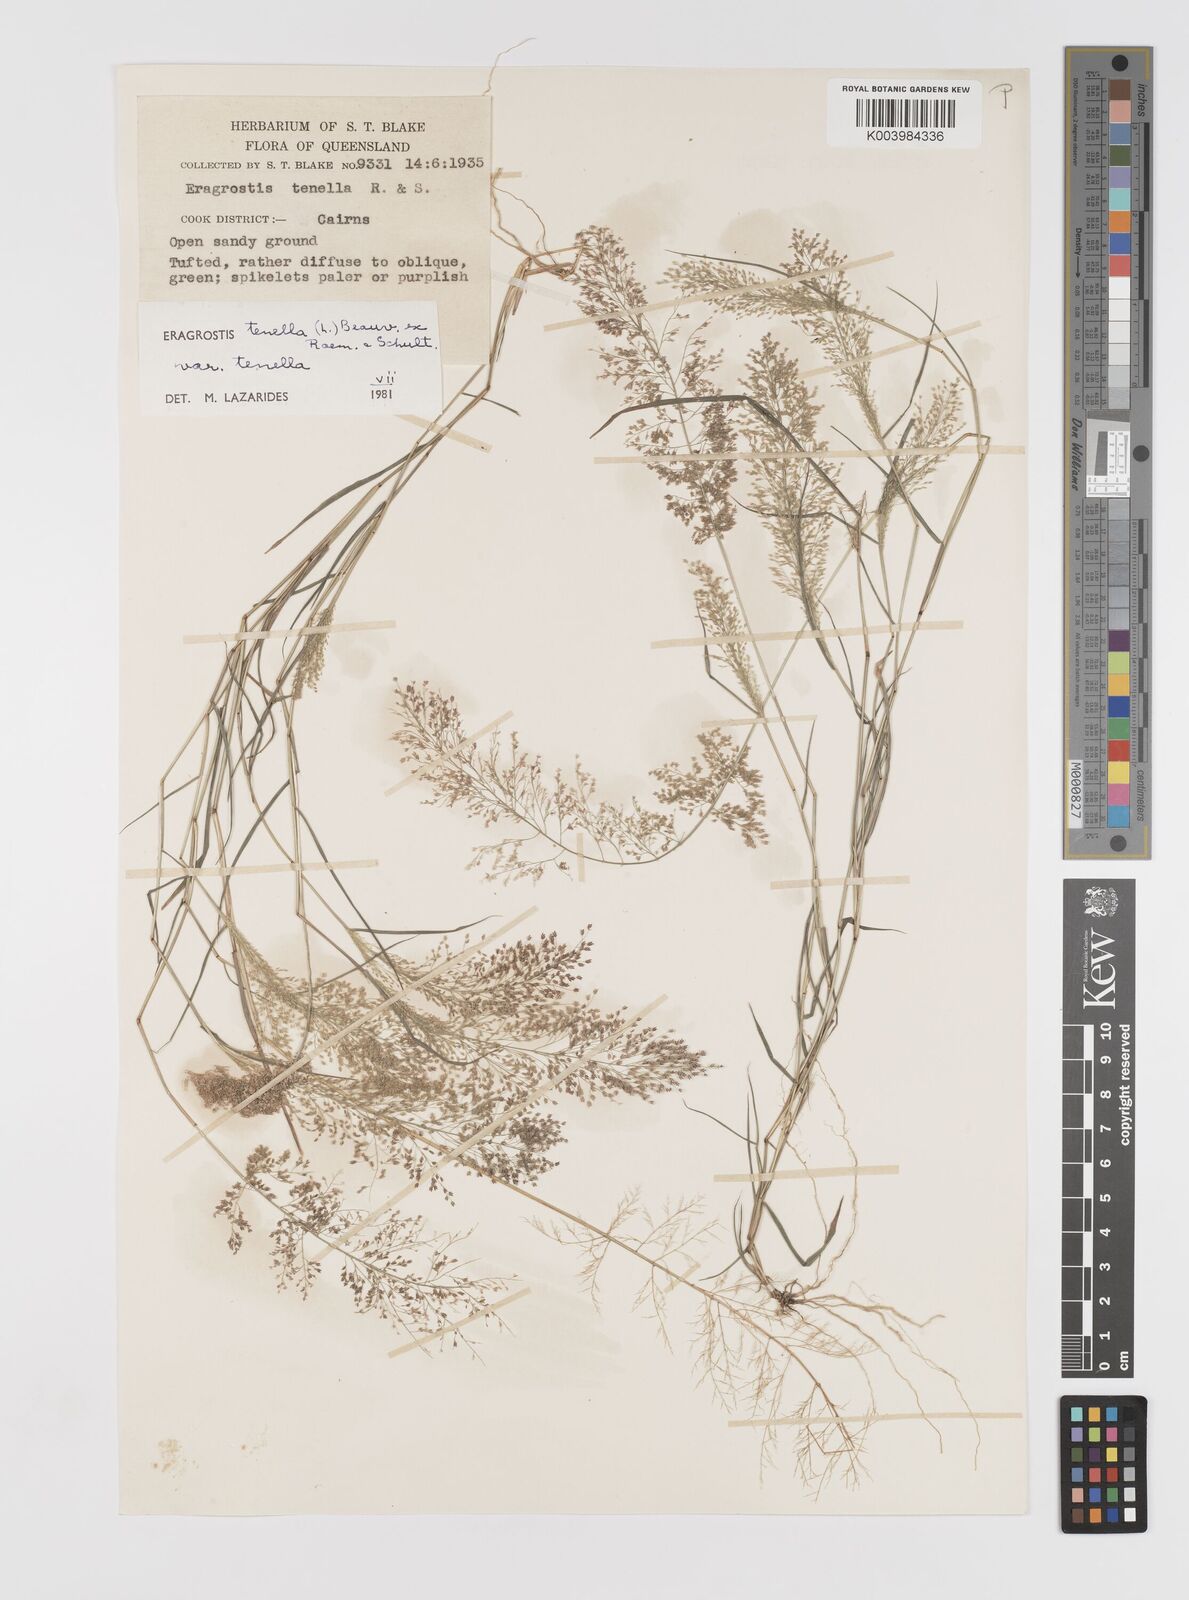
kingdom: Plantae
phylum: Tracheophyta
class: Liliopsida
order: Poales
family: Poaceae
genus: Eragrostis
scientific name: Eragrostis tenella
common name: Japanese lovegrass
